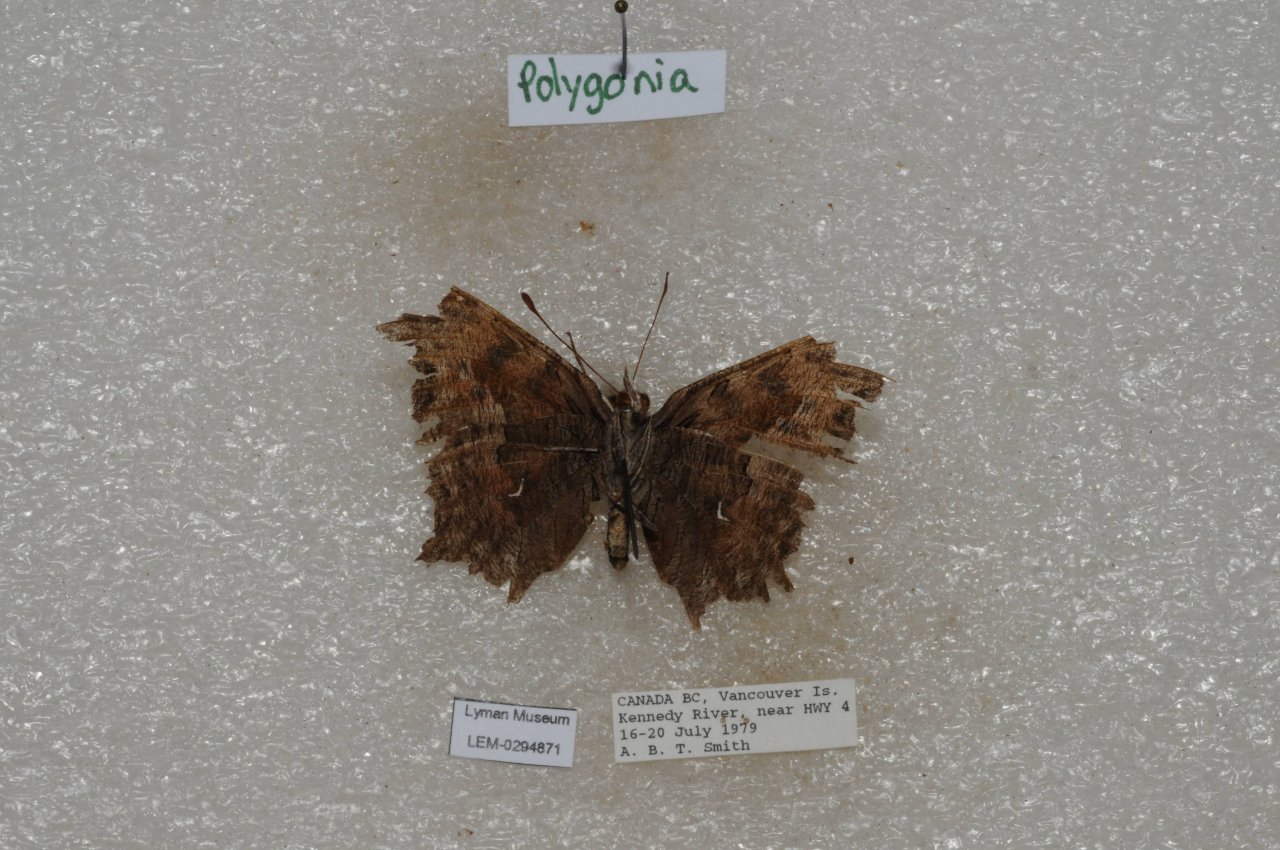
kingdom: Animalia
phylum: Arthropoda
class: Insecta
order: Lepidoptera
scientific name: Lepidoptera
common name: Butterflies
